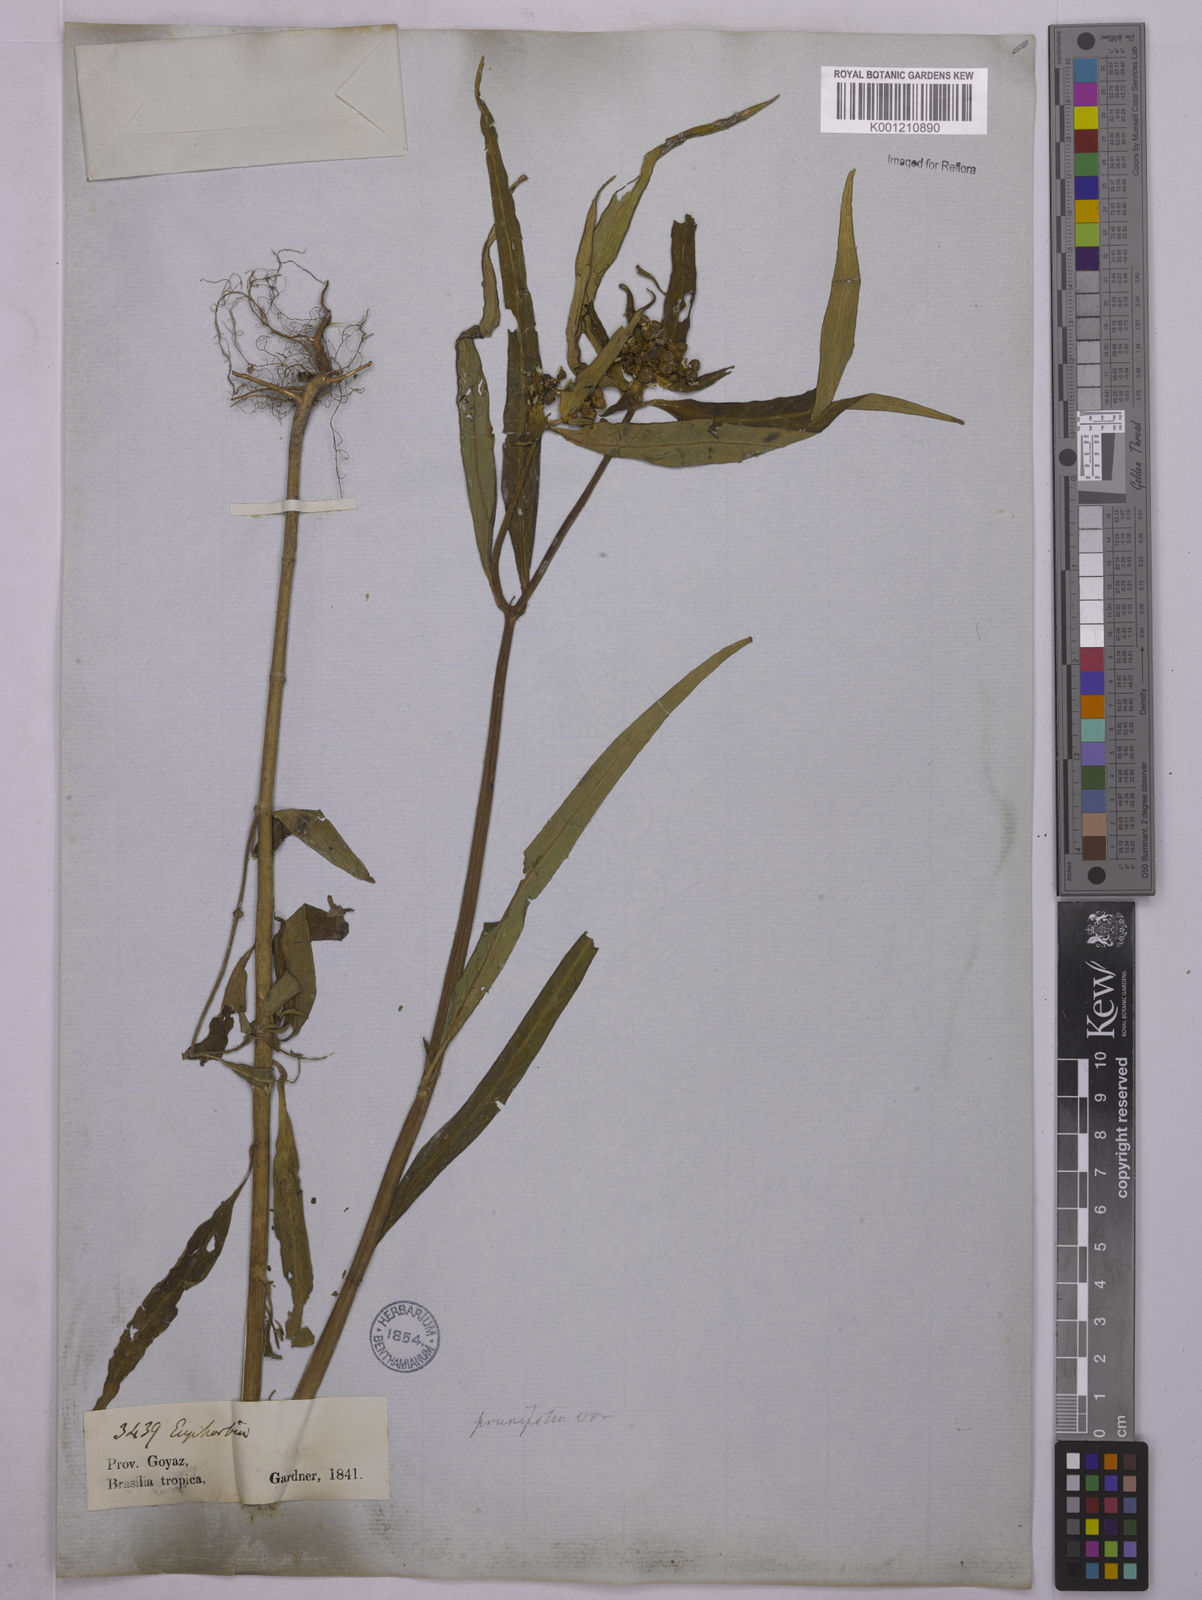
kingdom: Plantae
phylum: Tracheophyta
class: Magnoliopsida
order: Malpighiales
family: Euphorbiaceae
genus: Euphorbia
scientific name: Euphorbia heterophylla
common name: Mexican fireplant
